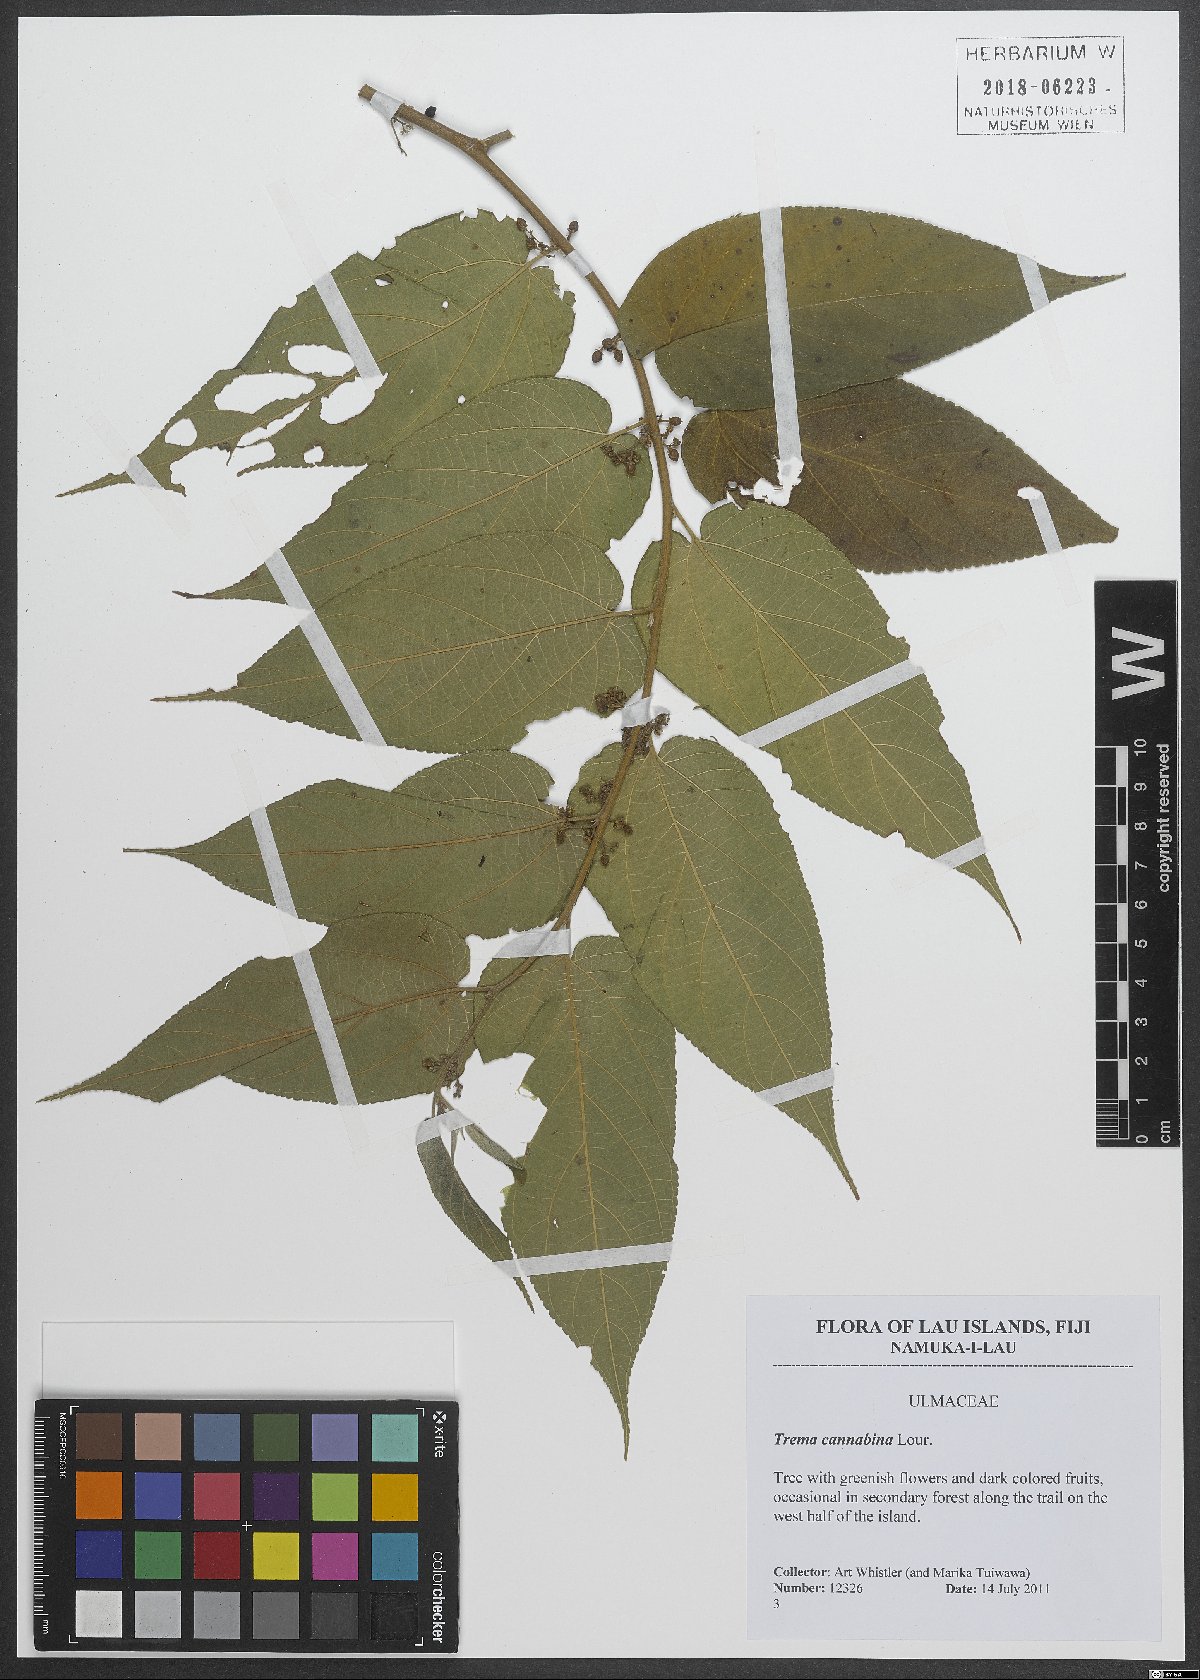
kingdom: Plantae
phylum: Tracheophyta
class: Magnoliopsida
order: Rosales
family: Cannabaceae
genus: Trema
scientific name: Trema cannabina
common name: Poison-peach
